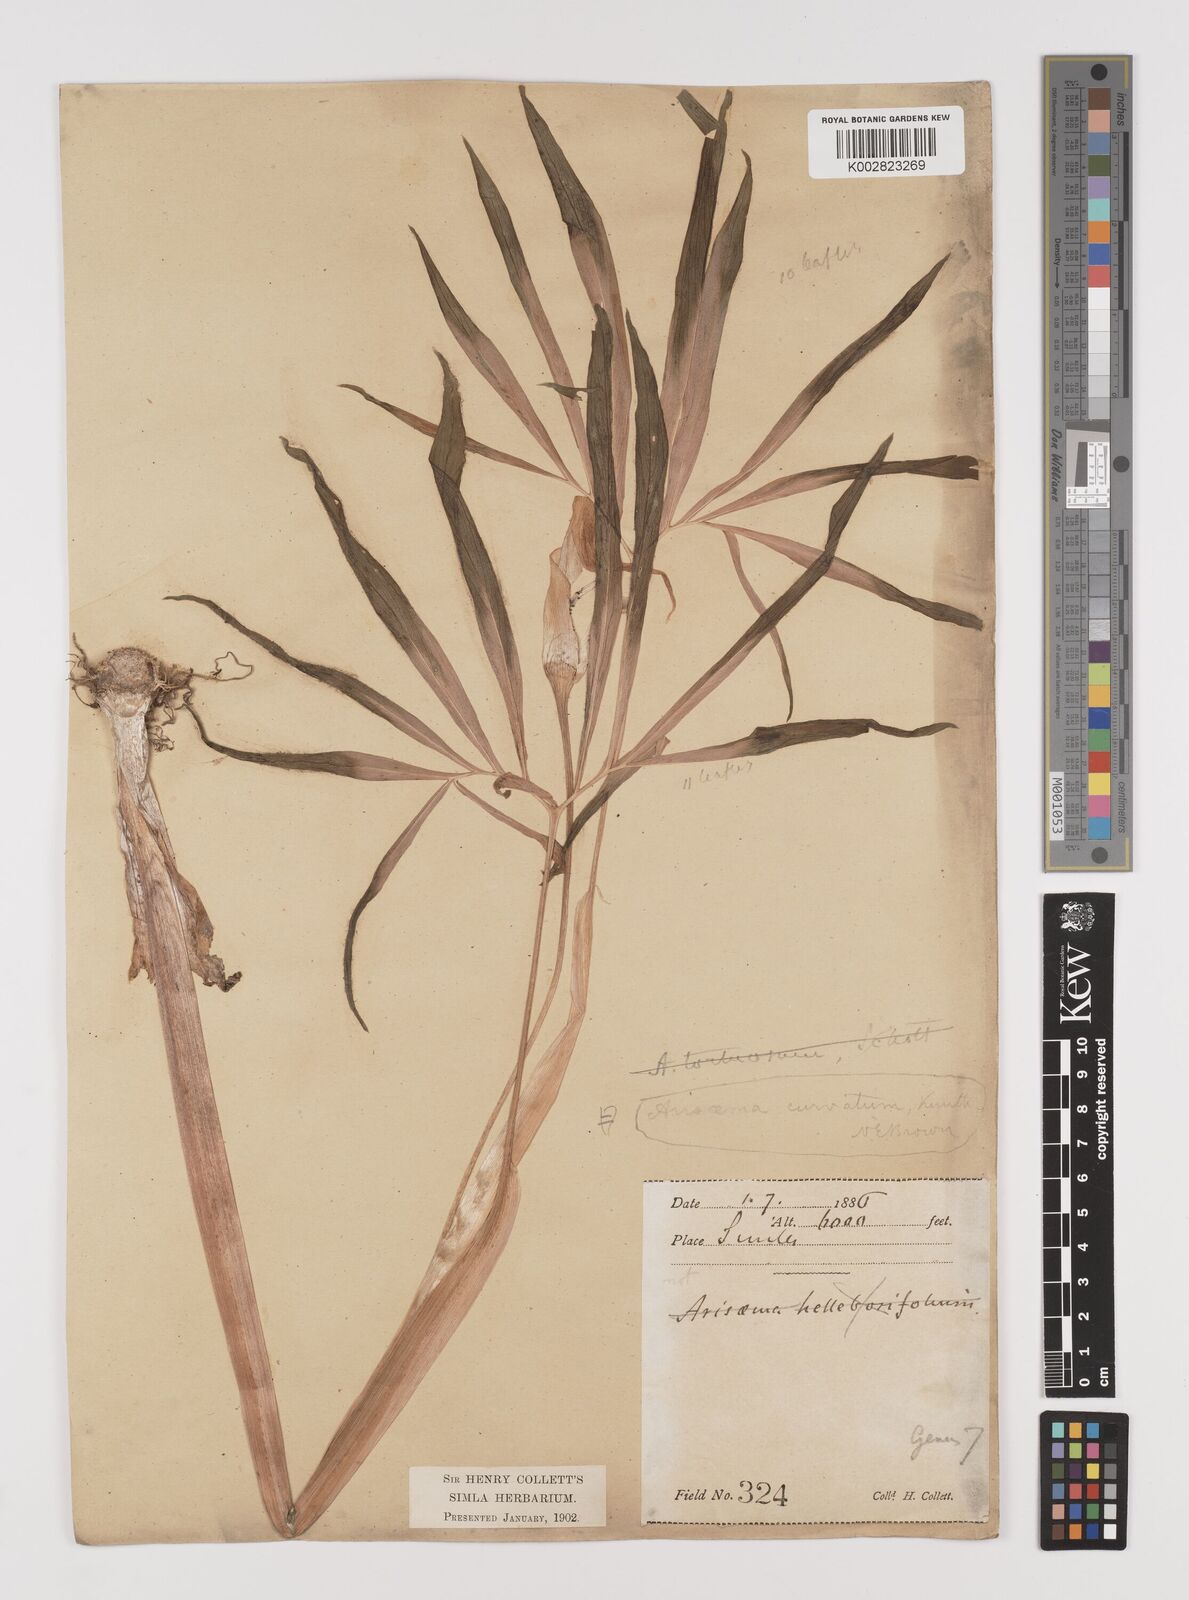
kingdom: Plantae
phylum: Tracheophyta
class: Liliopsida
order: Alismatales
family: Araceae
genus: Arisaema
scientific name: Arisaema tortuosum
